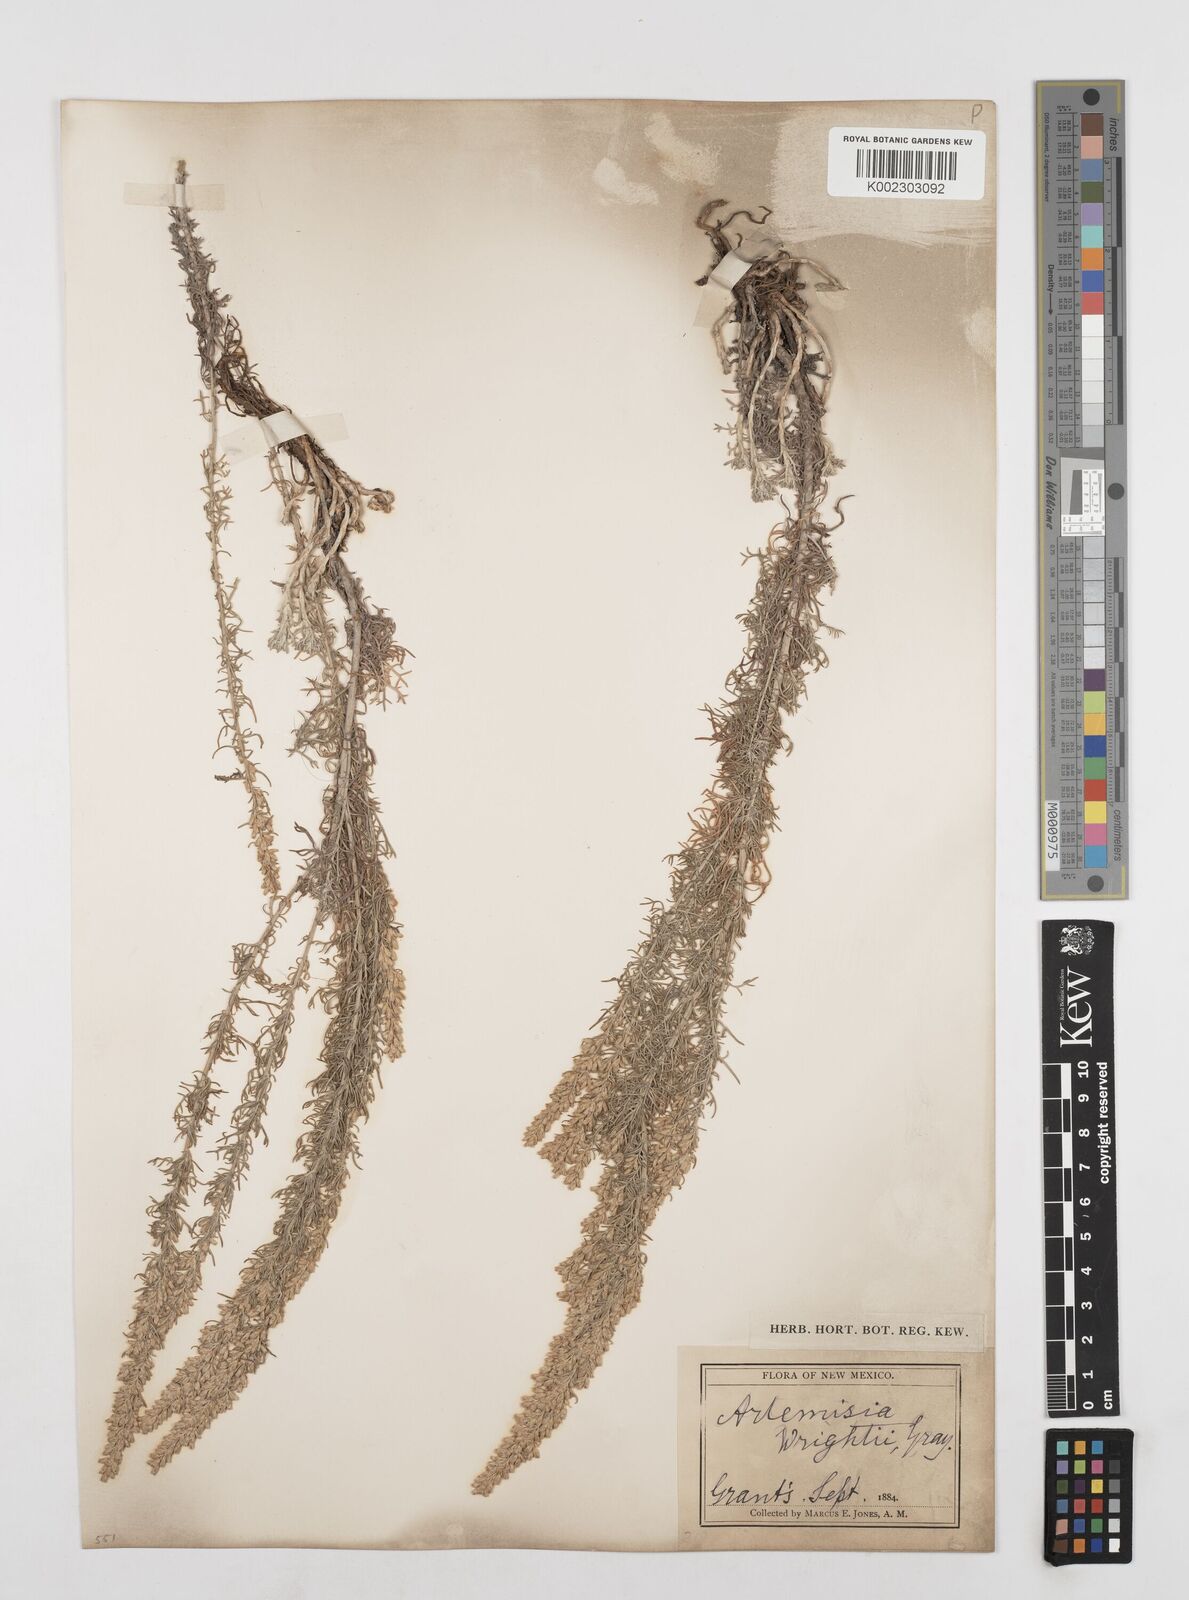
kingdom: Plantae
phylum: Tracheophyta
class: Magnoliopsida
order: Asterales
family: Asteraceae
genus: Artemisia
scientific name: Artemisia carruthii
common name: Carruth wormwood
